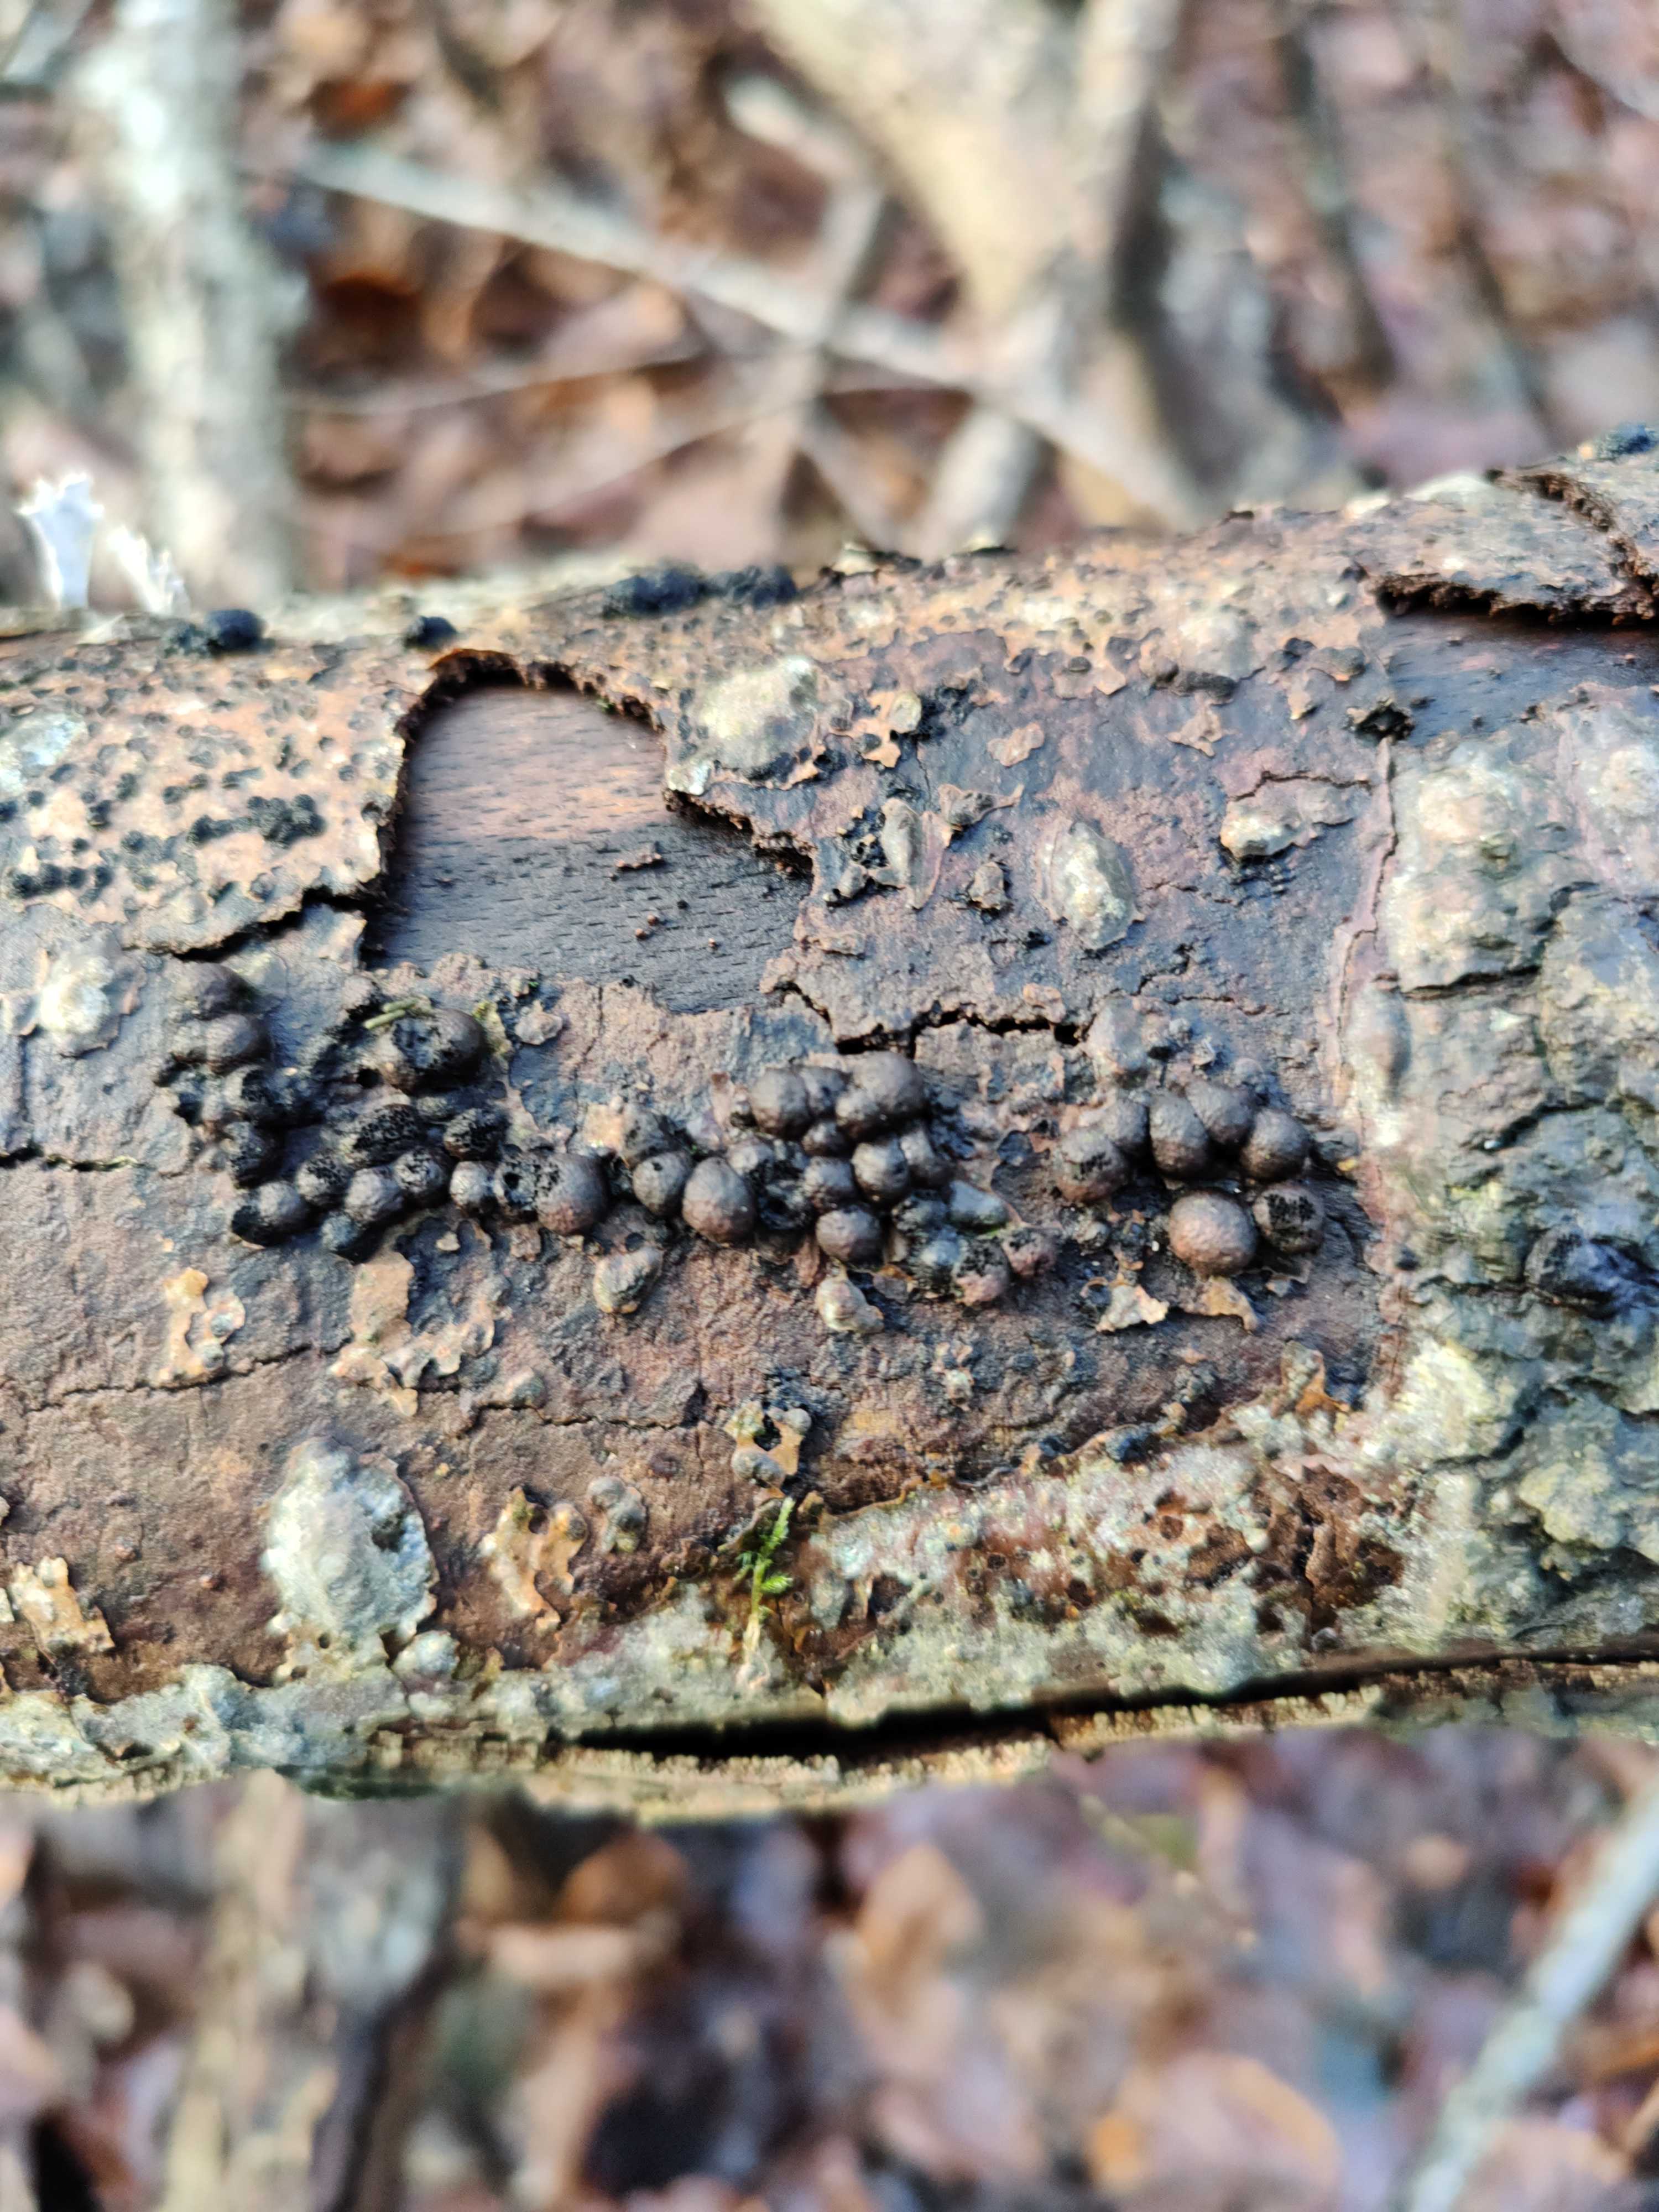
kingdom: Fungi
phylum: Ascomycota
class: Sordariomycetes
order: Xylariales
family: Hypoxylaceae
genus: Hypoxylon
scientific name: Hypoxylon fragiforme
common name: kuljordbær
